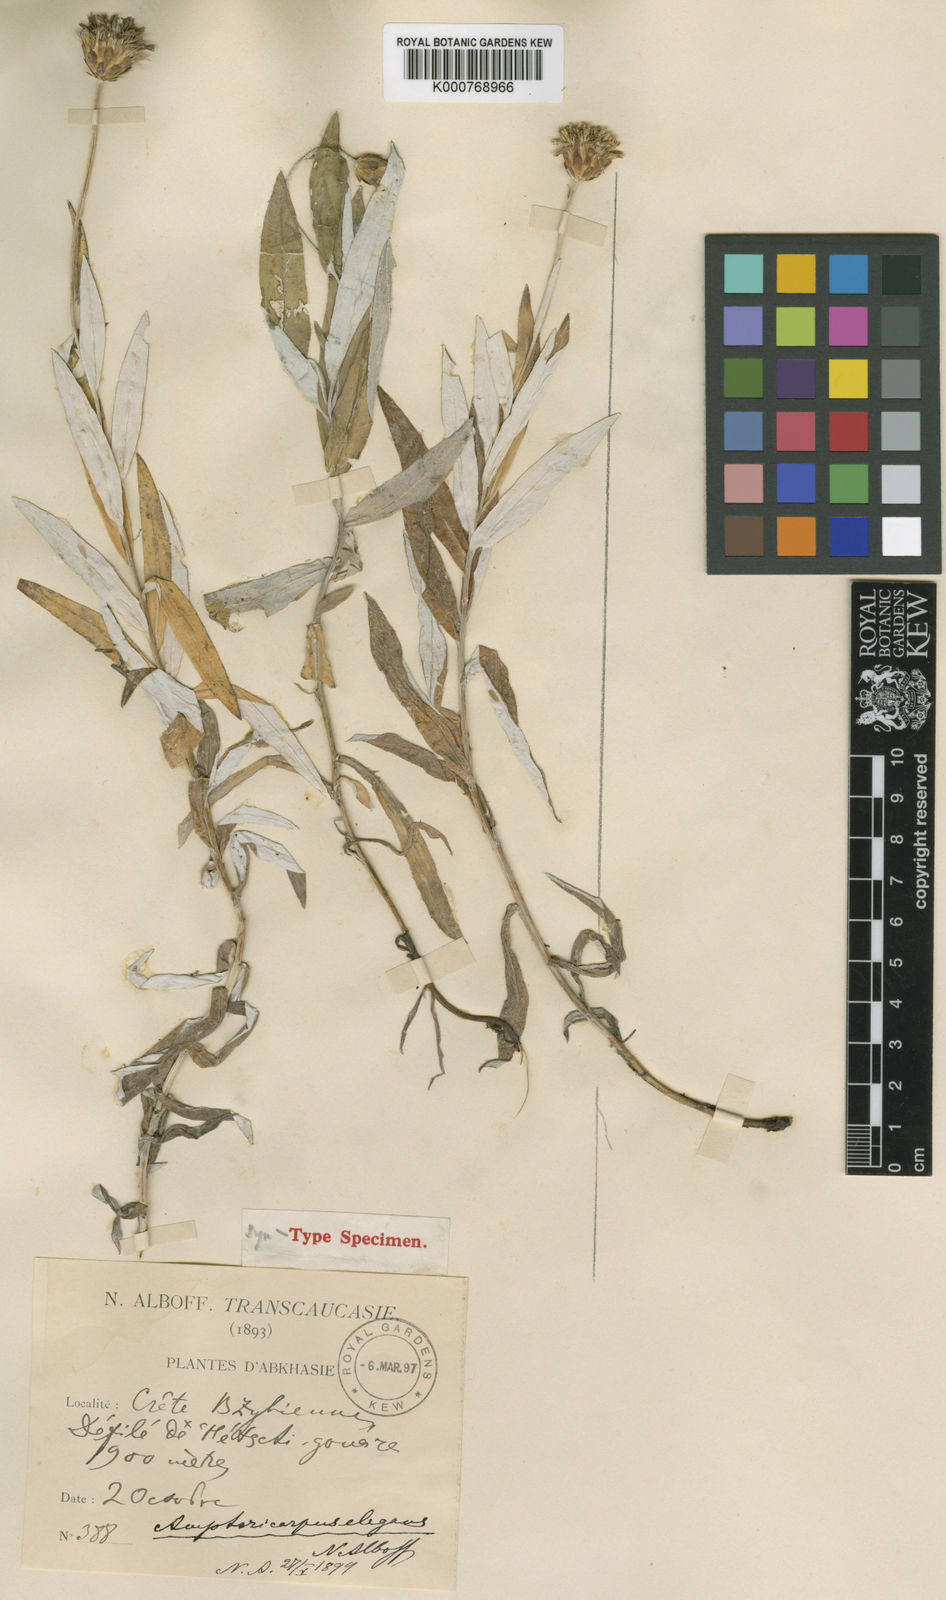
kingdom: Plantae
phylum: Tracheophyta
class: Magnoliopsida
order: Asterales
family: Asteraceae
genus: Amphoricarpos
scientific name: Amphoricarpos elegans
